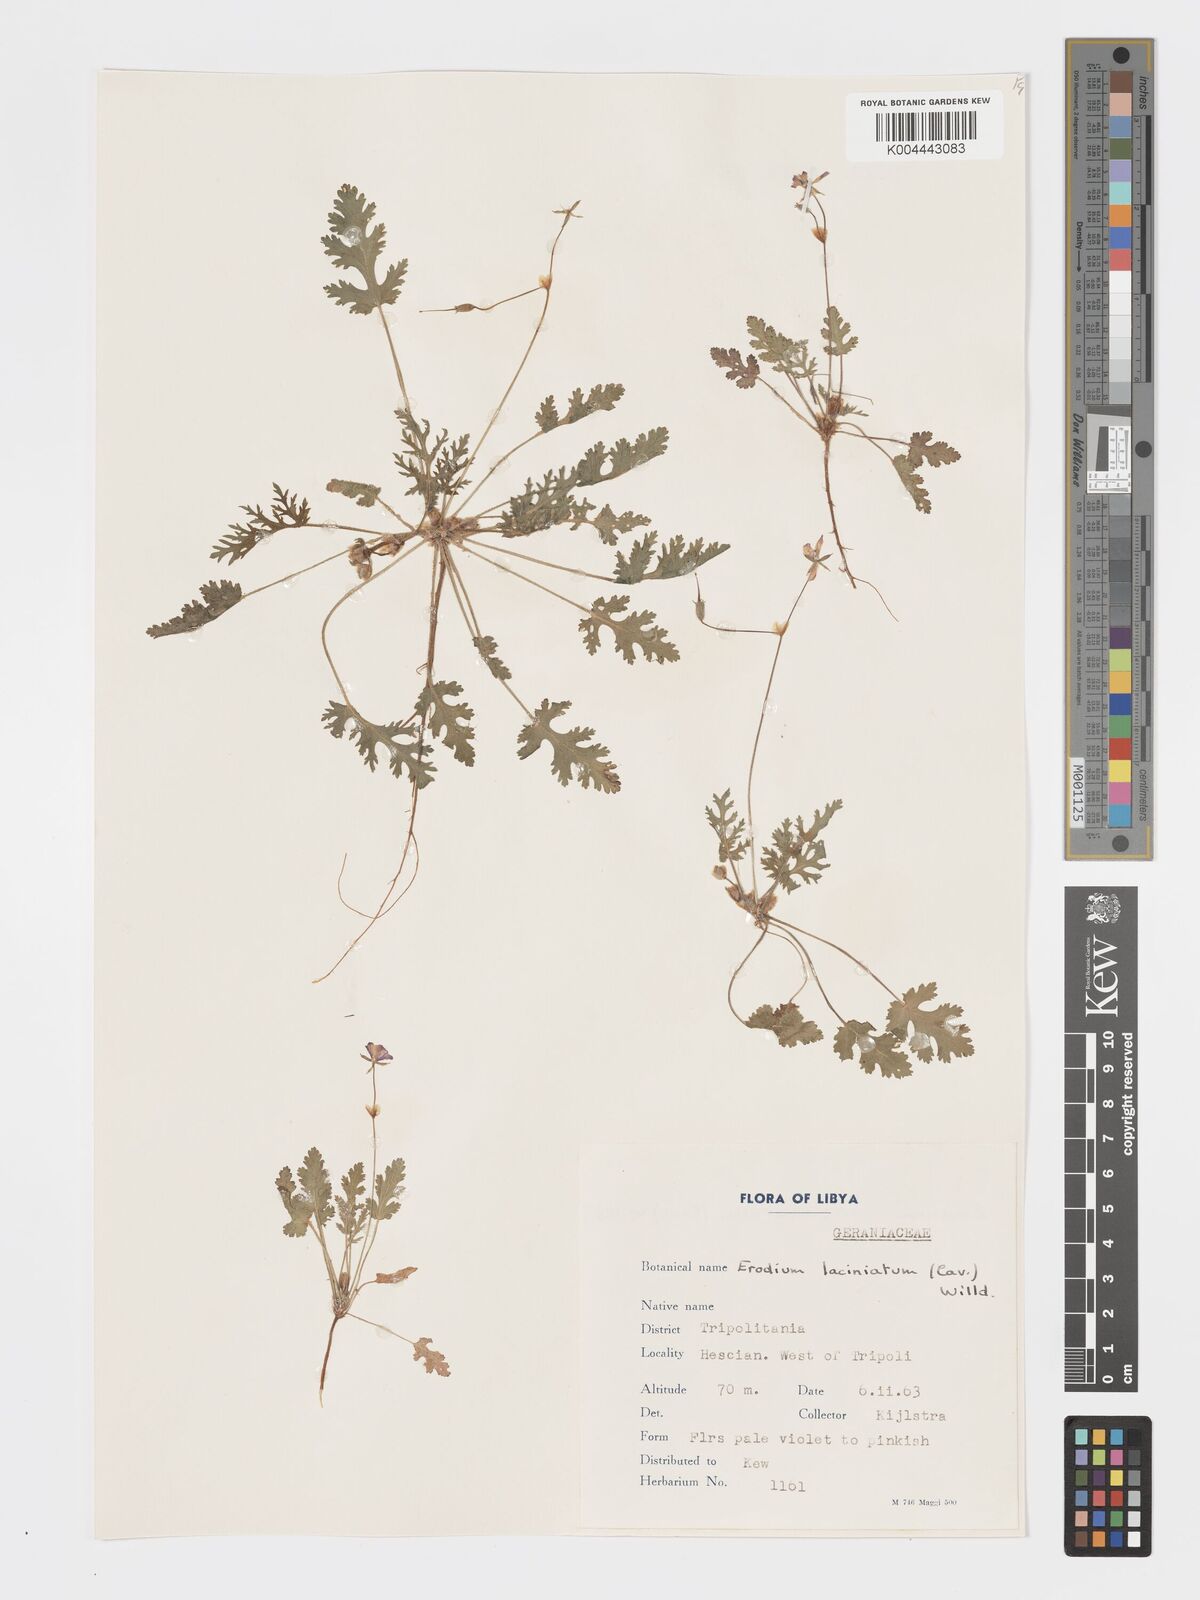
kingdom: Plantae
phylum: Tracheophyta
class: Magnoliopsida
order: Geraniales
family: Geraniaceae
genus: Erodium
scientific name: Erodium laciniatum
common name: Cutleaf stork's bill
